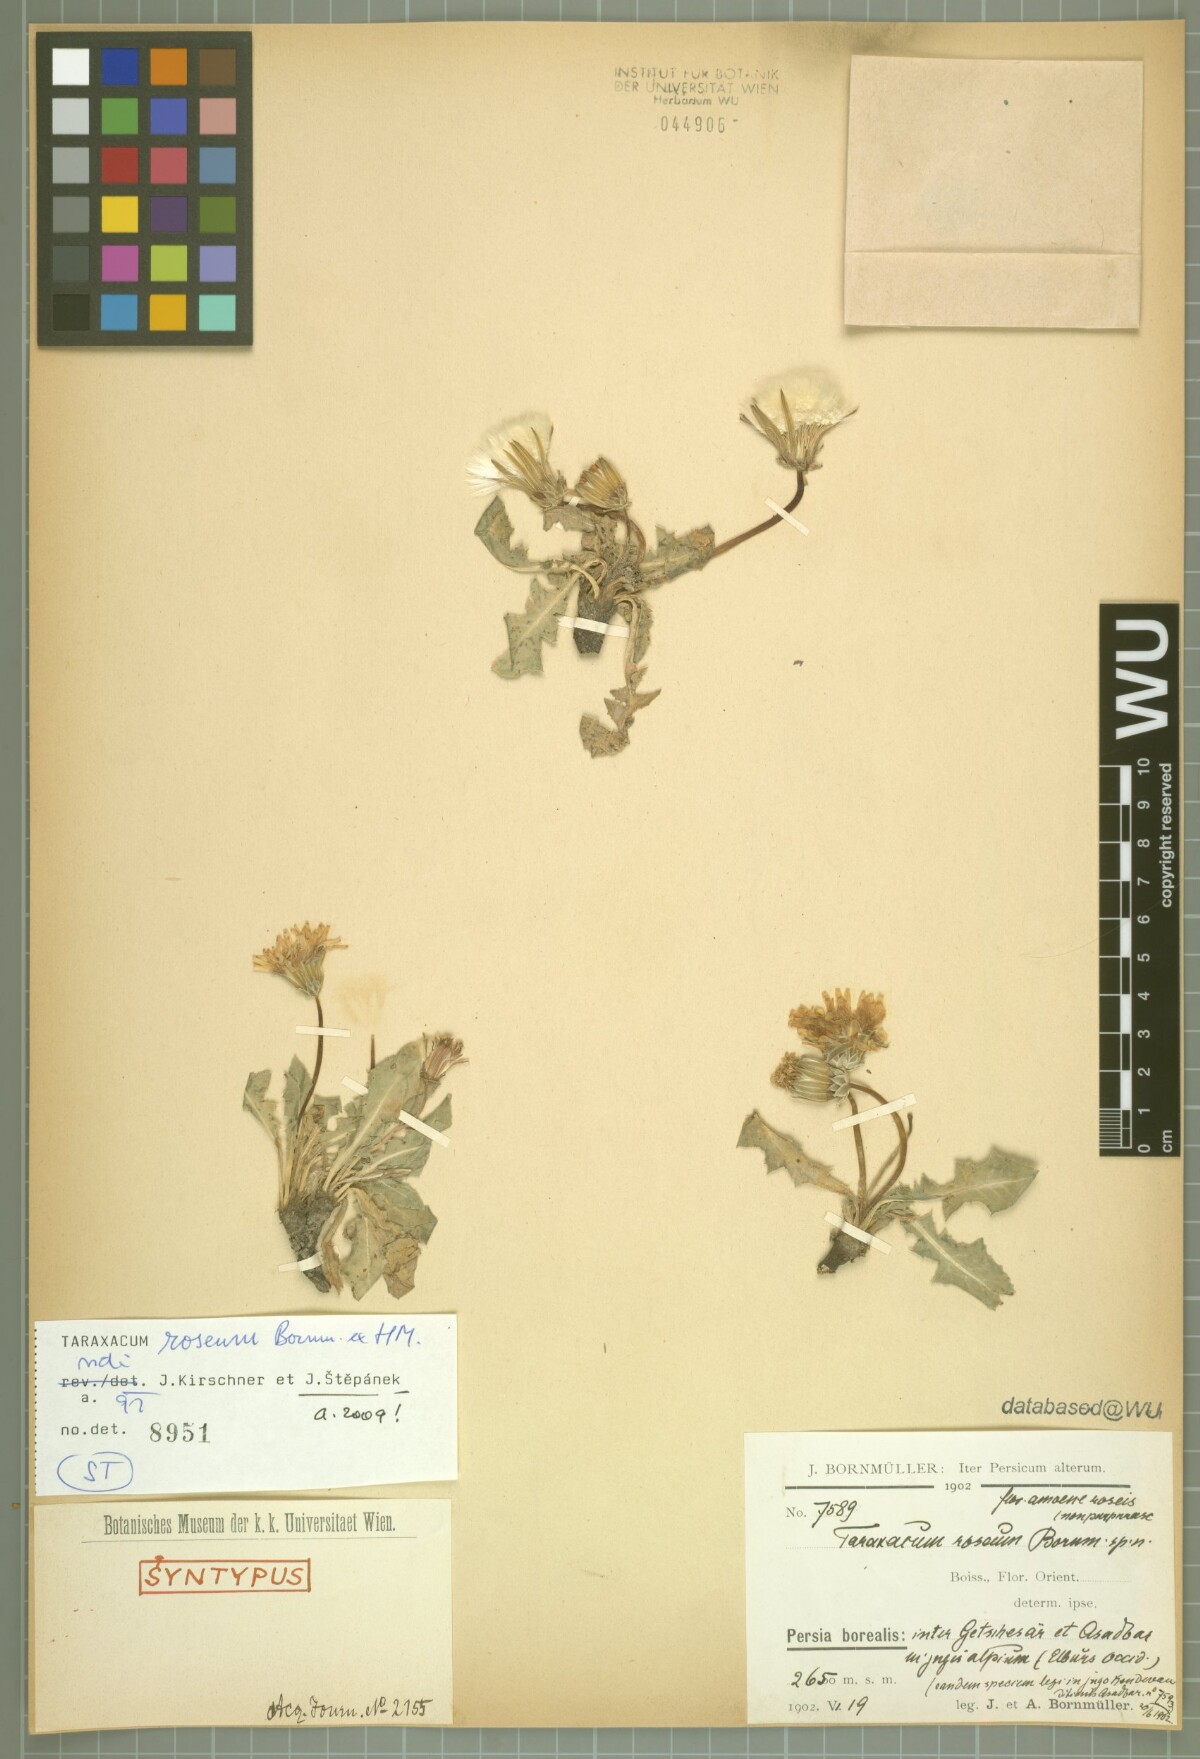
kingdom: Plantae
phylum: Tracheophyta
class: Magnoliopsida
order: Asterales
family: Asteraceae
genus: Taraxacum
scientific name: Taraxacum roseum
